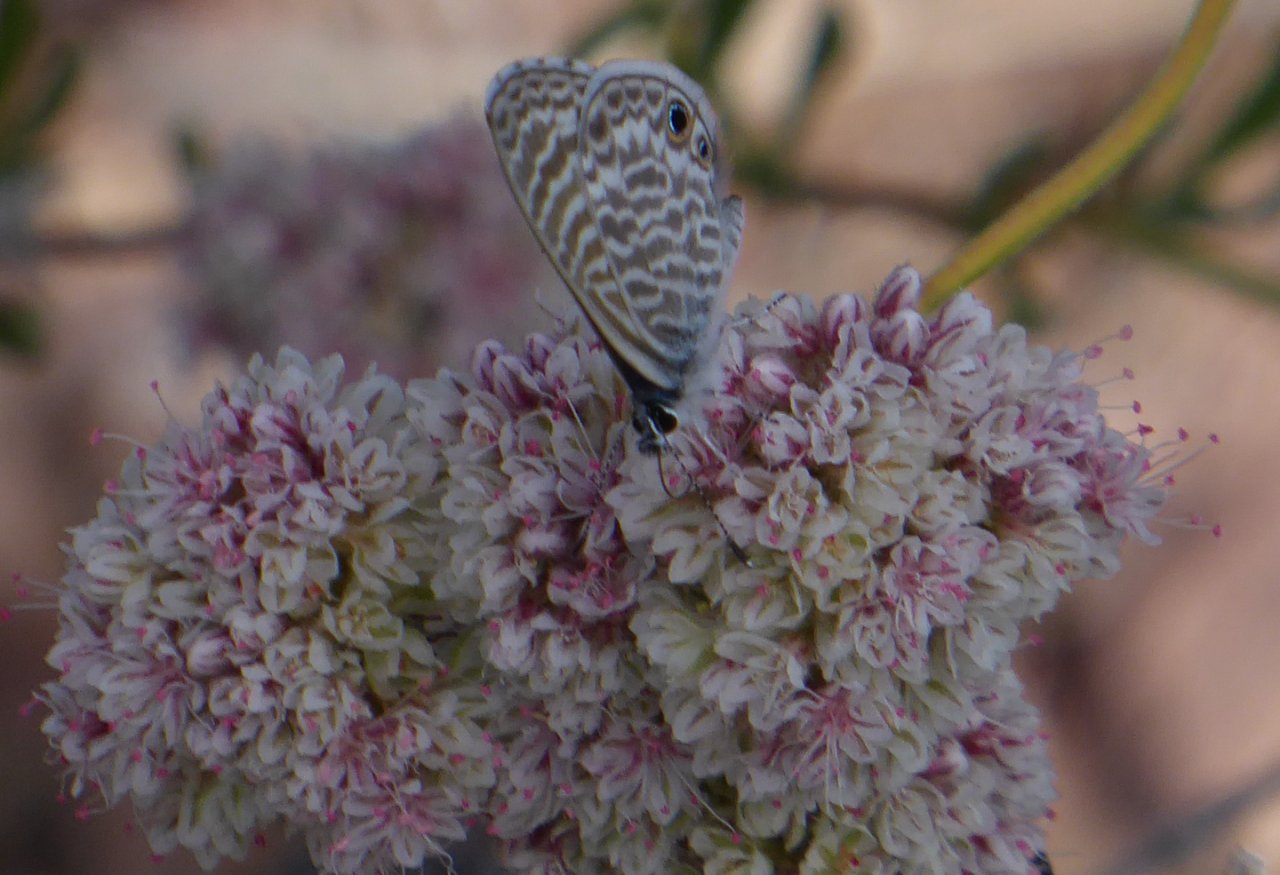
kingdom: Animalia
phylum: Arthropoda
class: Insecta
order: Lepidoptera
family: Lycaenidae
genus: Leptotes
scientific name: Leptotes marina
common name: Marine Blue
